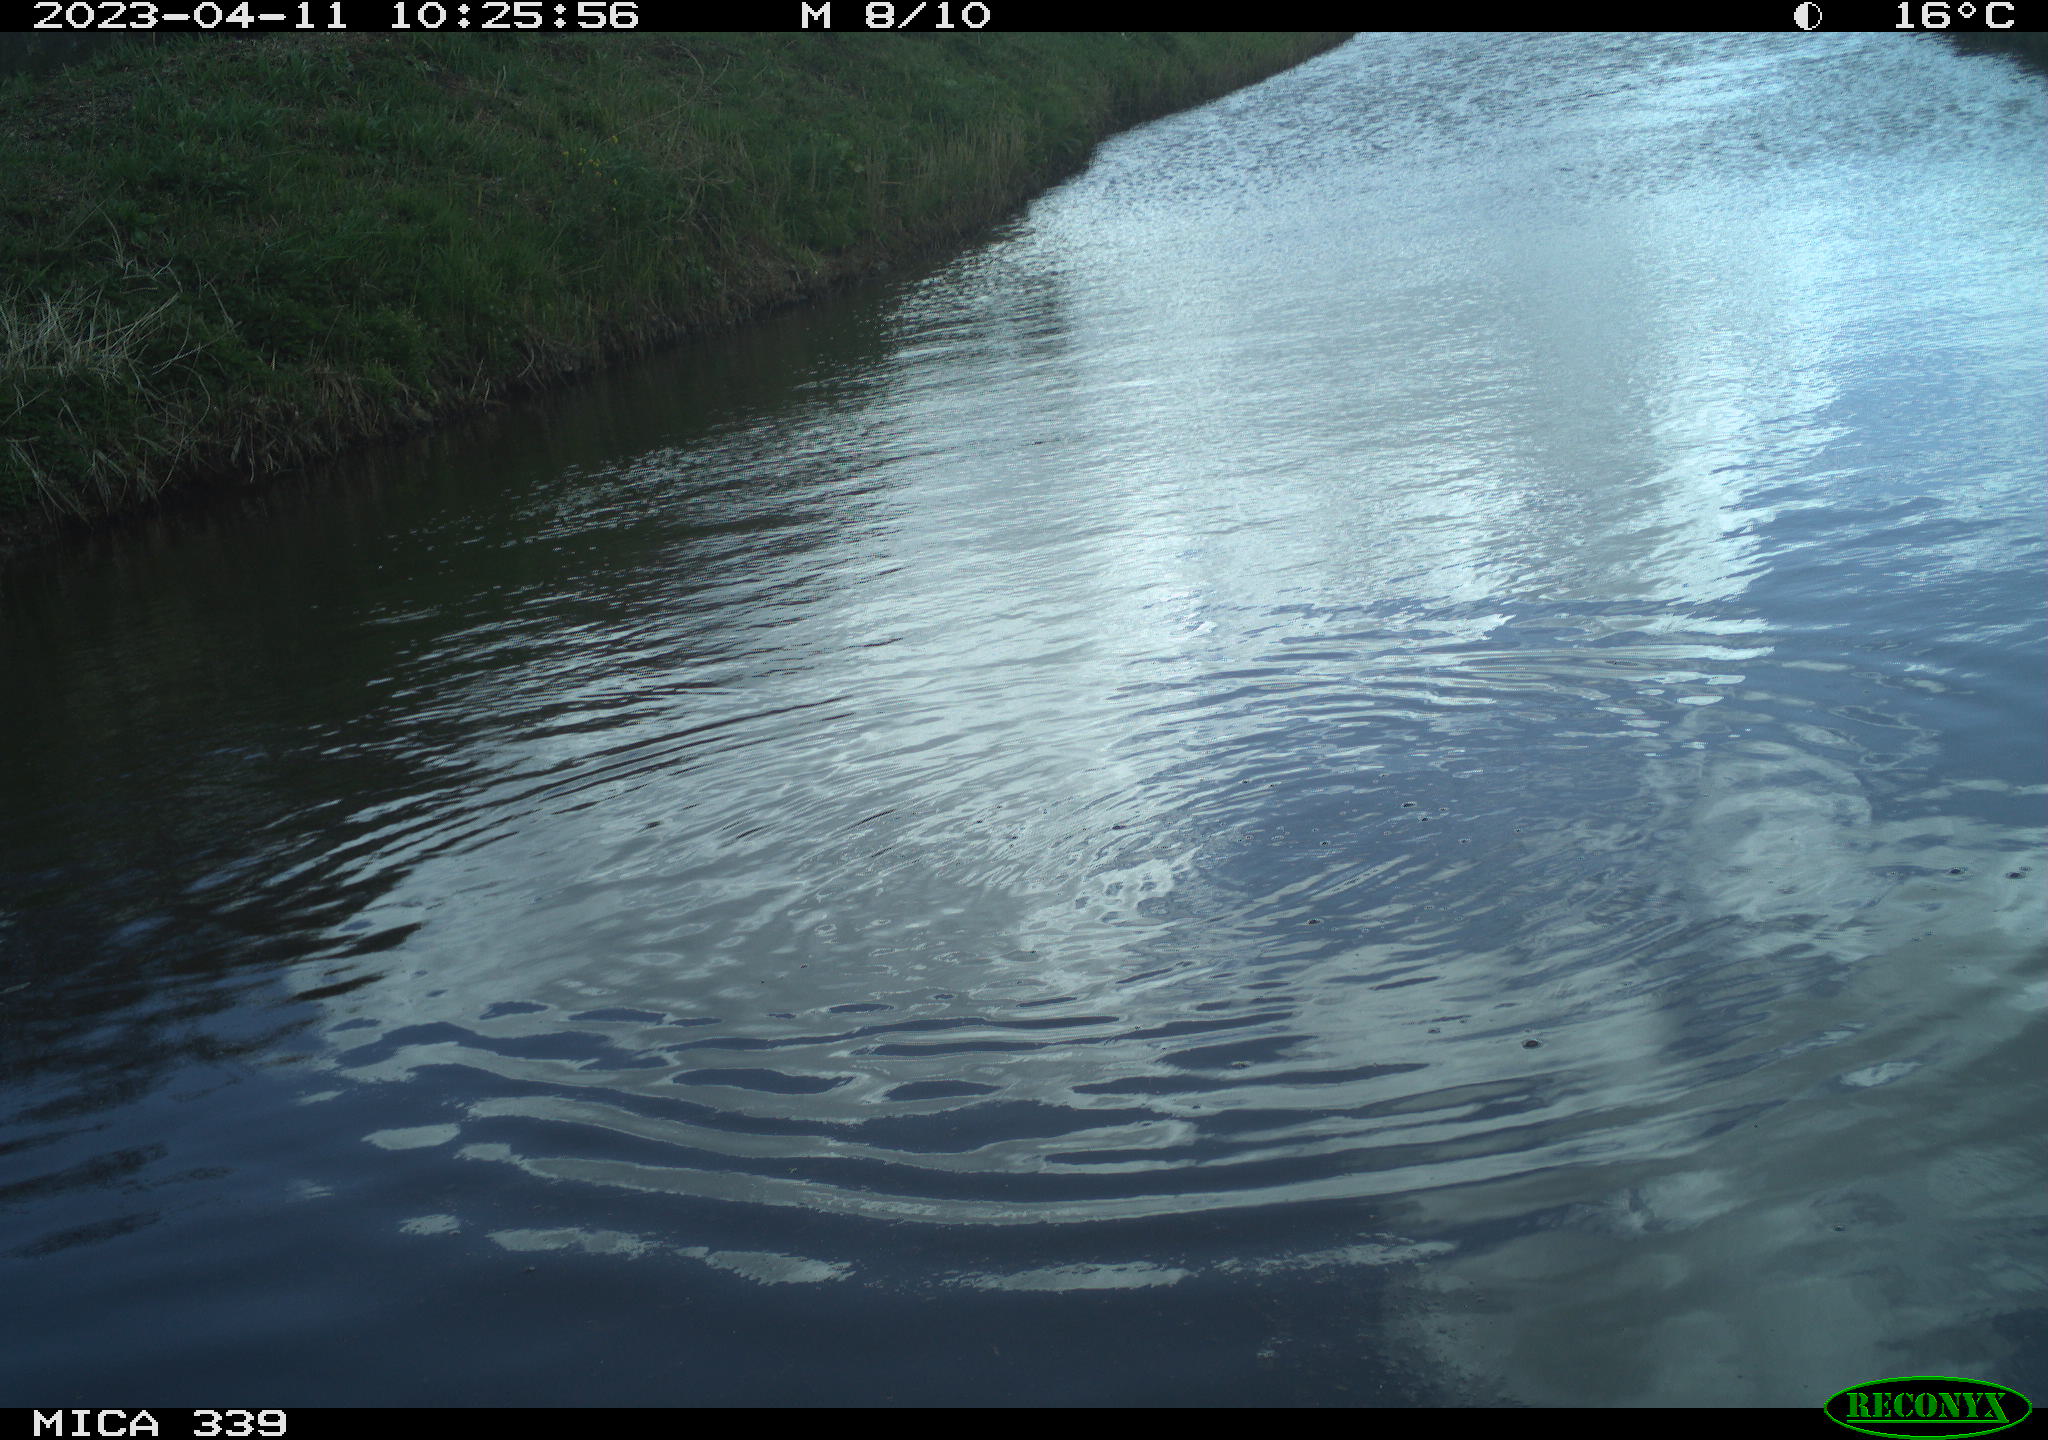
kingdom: Animalia
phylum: Chordata
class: Aves
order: Pelecaniformes
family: Ardeidae
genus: Ardea
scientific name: Ardea cinerea
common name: Grey heron
